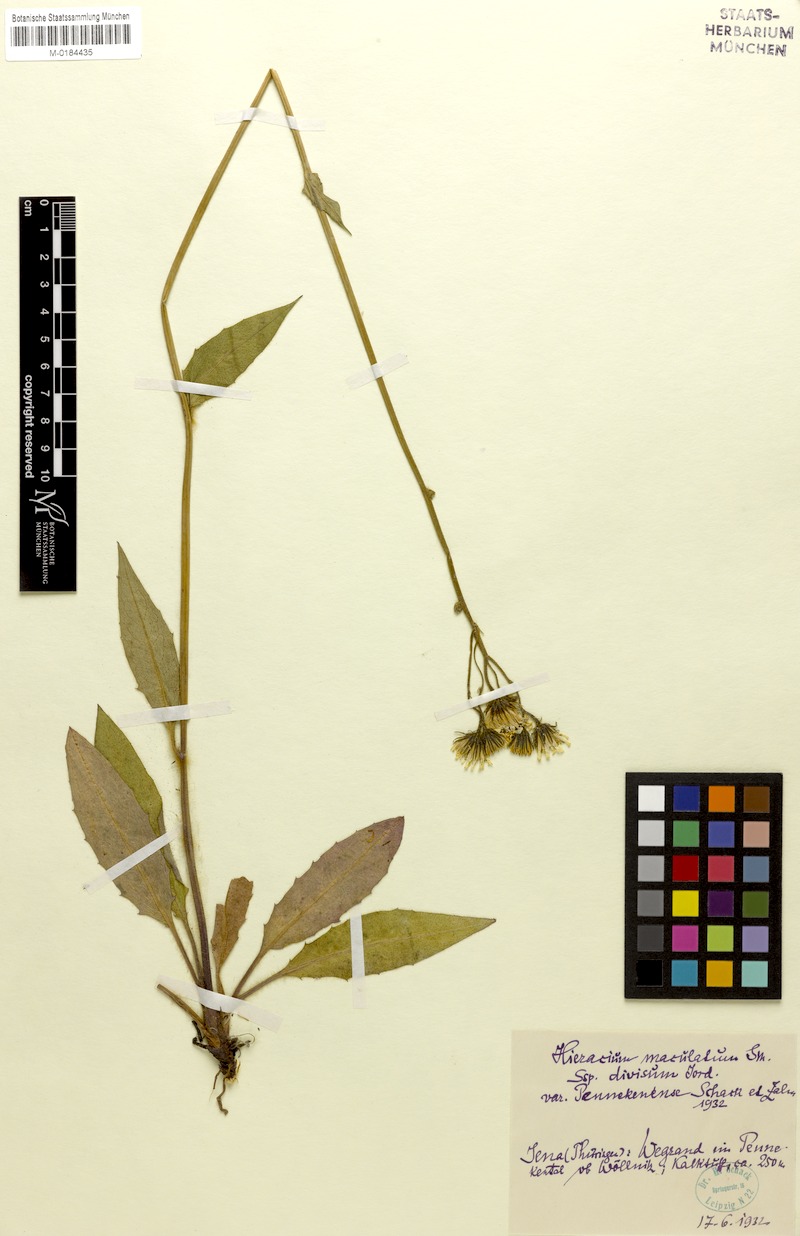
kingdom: Plantae
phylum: Tracheophyta
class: Magnoliopsida
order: Asterales
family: Asteraceae
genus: Hieracium
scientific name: Hieracium maculatum
